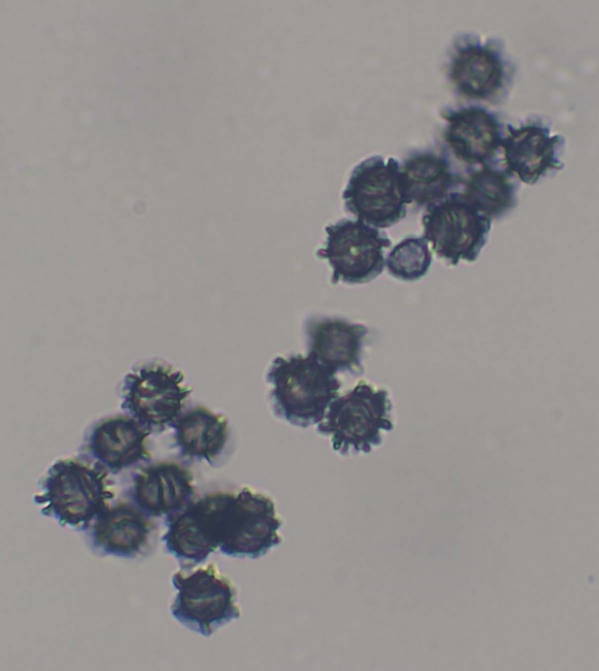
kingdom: Fungi
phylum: Basidiomycota
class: Agaricomycetes
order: Russulales
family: Russulaceae
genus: Lactarius
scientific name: Lactarius ruginosus
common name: gråbrun mælkehat
